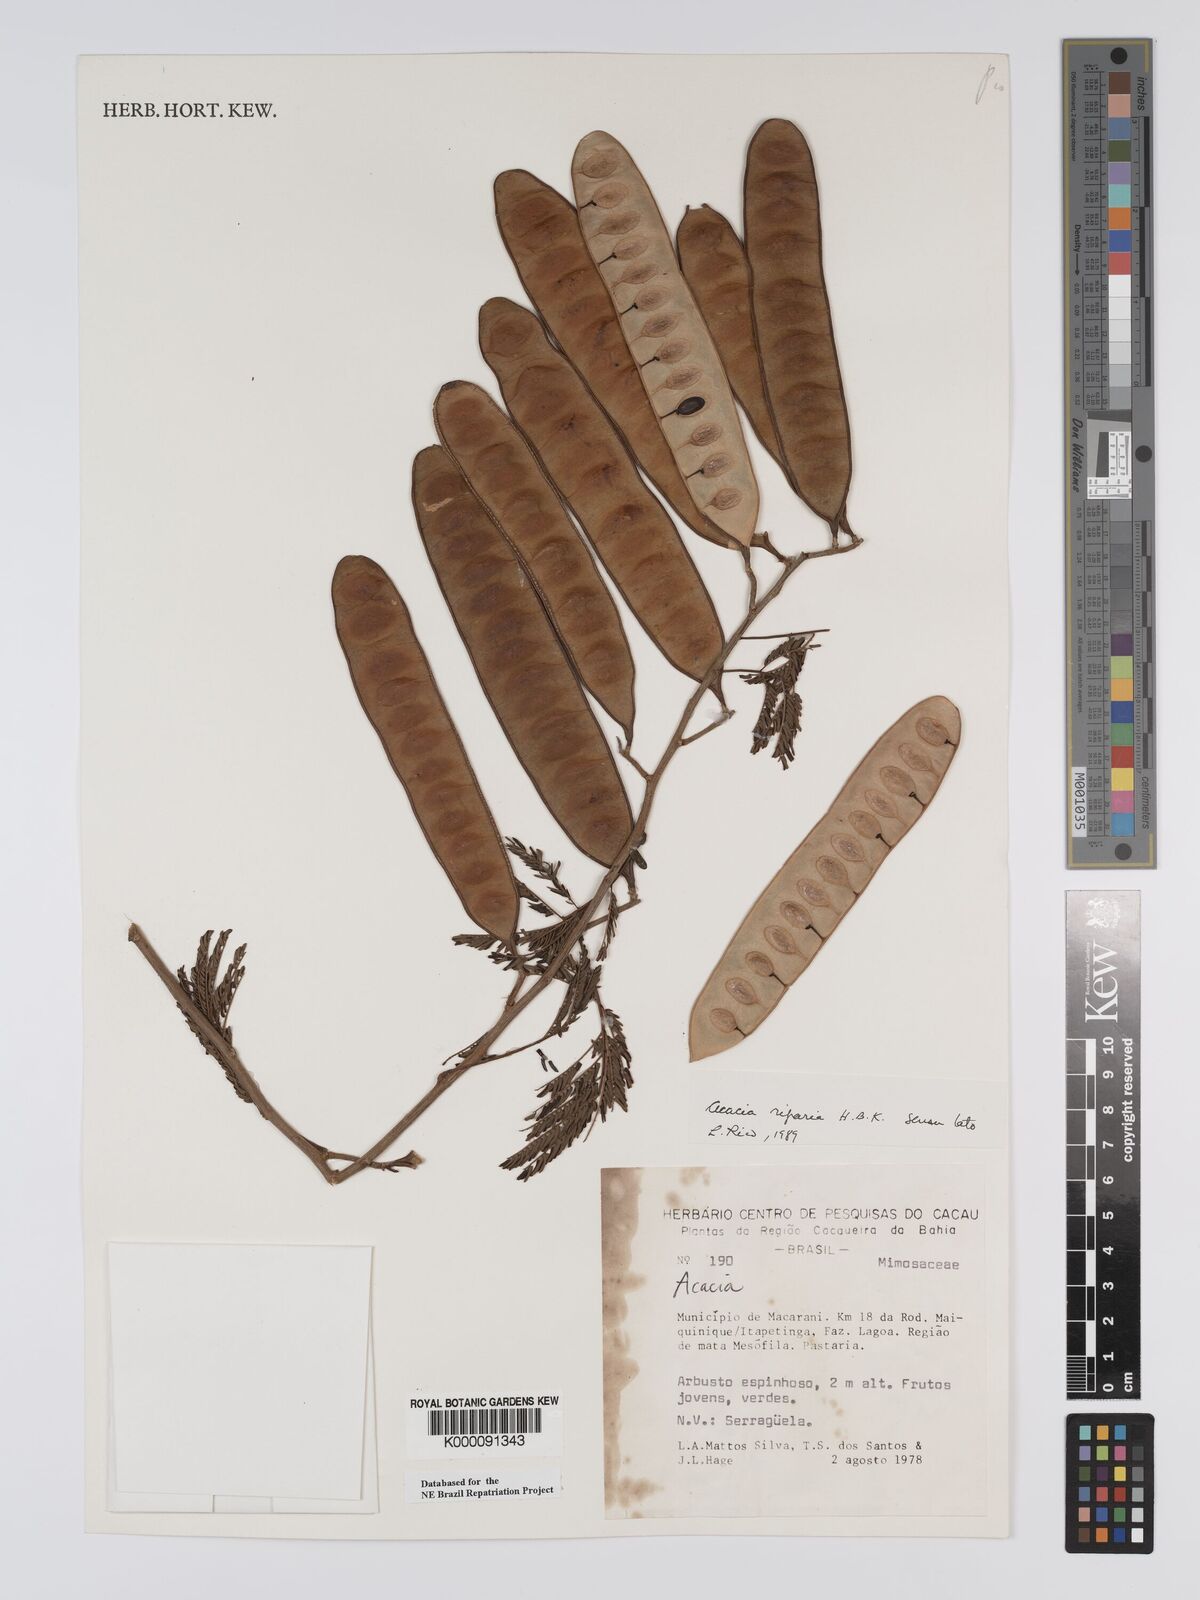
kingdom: Plantae
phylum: Tracheophyta
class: Magnoliopsida
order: Fabales
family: Fabaceae
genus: Senegalia
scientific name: Senegalia riparia
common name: Catch-and-keep
